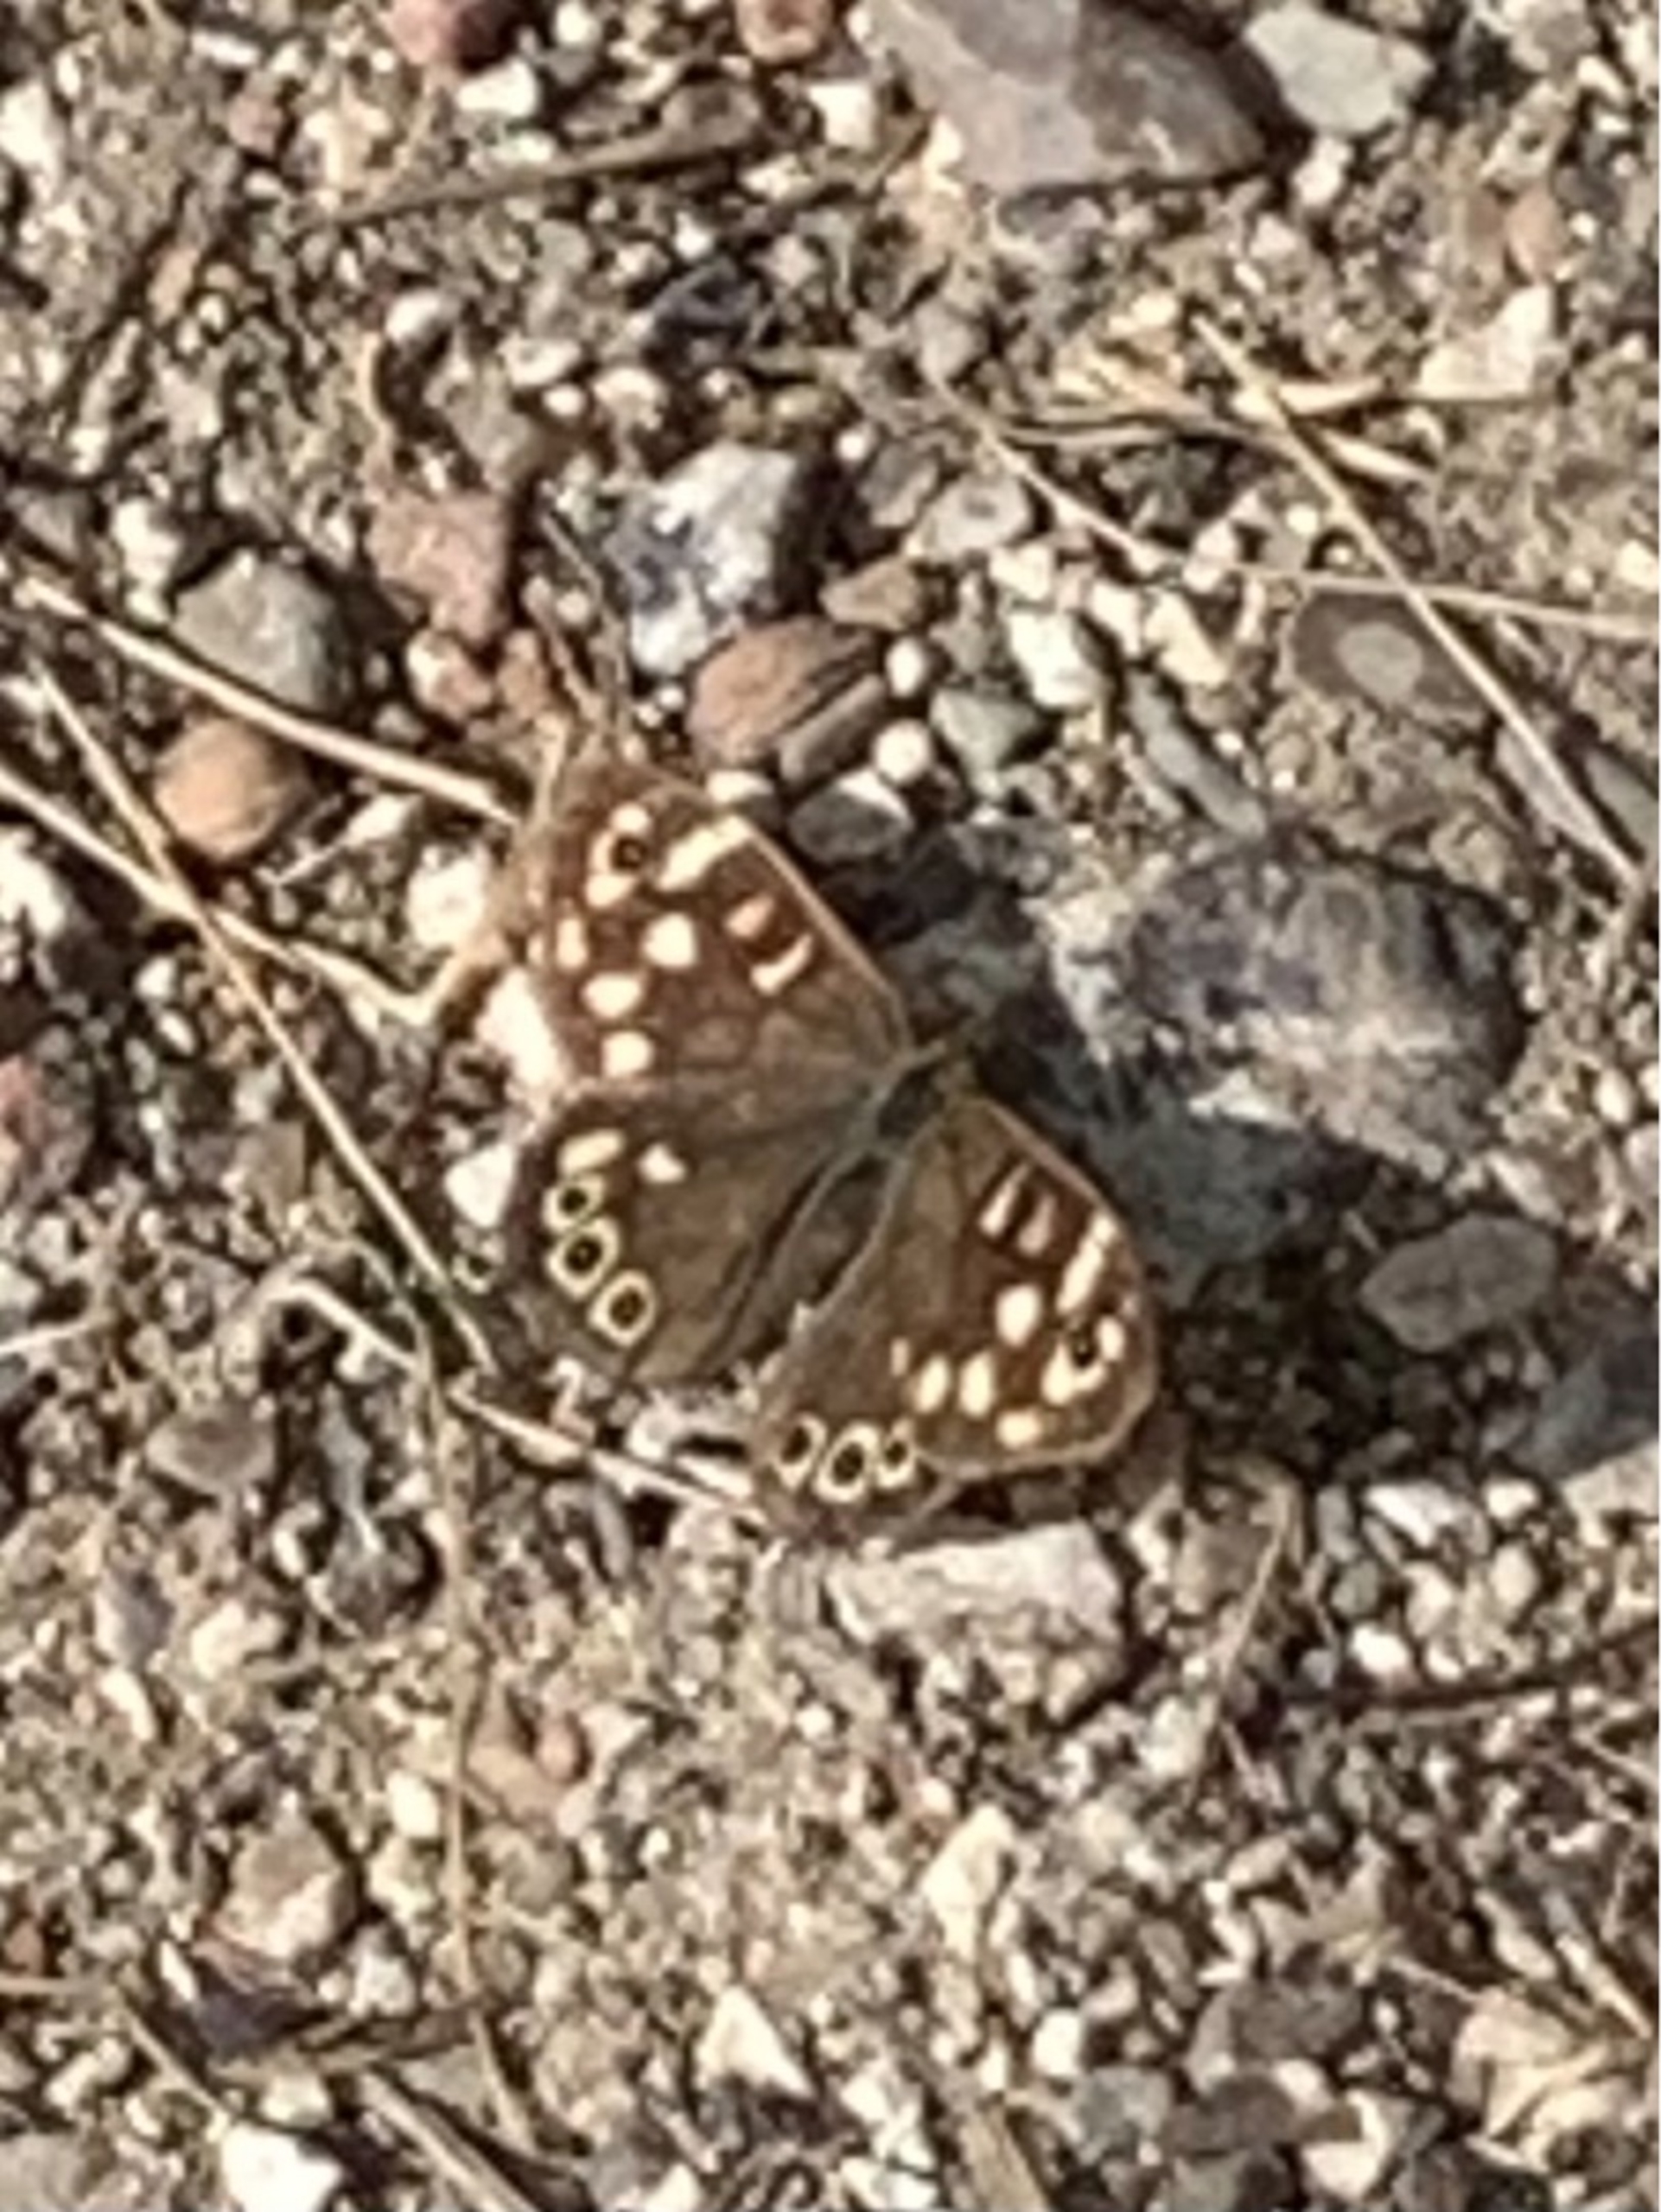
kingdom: Animalia
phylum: Arthropoda
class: Insecta
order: Lepidoptera
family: Nymphalidae
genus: Pararge
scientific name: Pararge aegeria
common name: Skovrandøje
